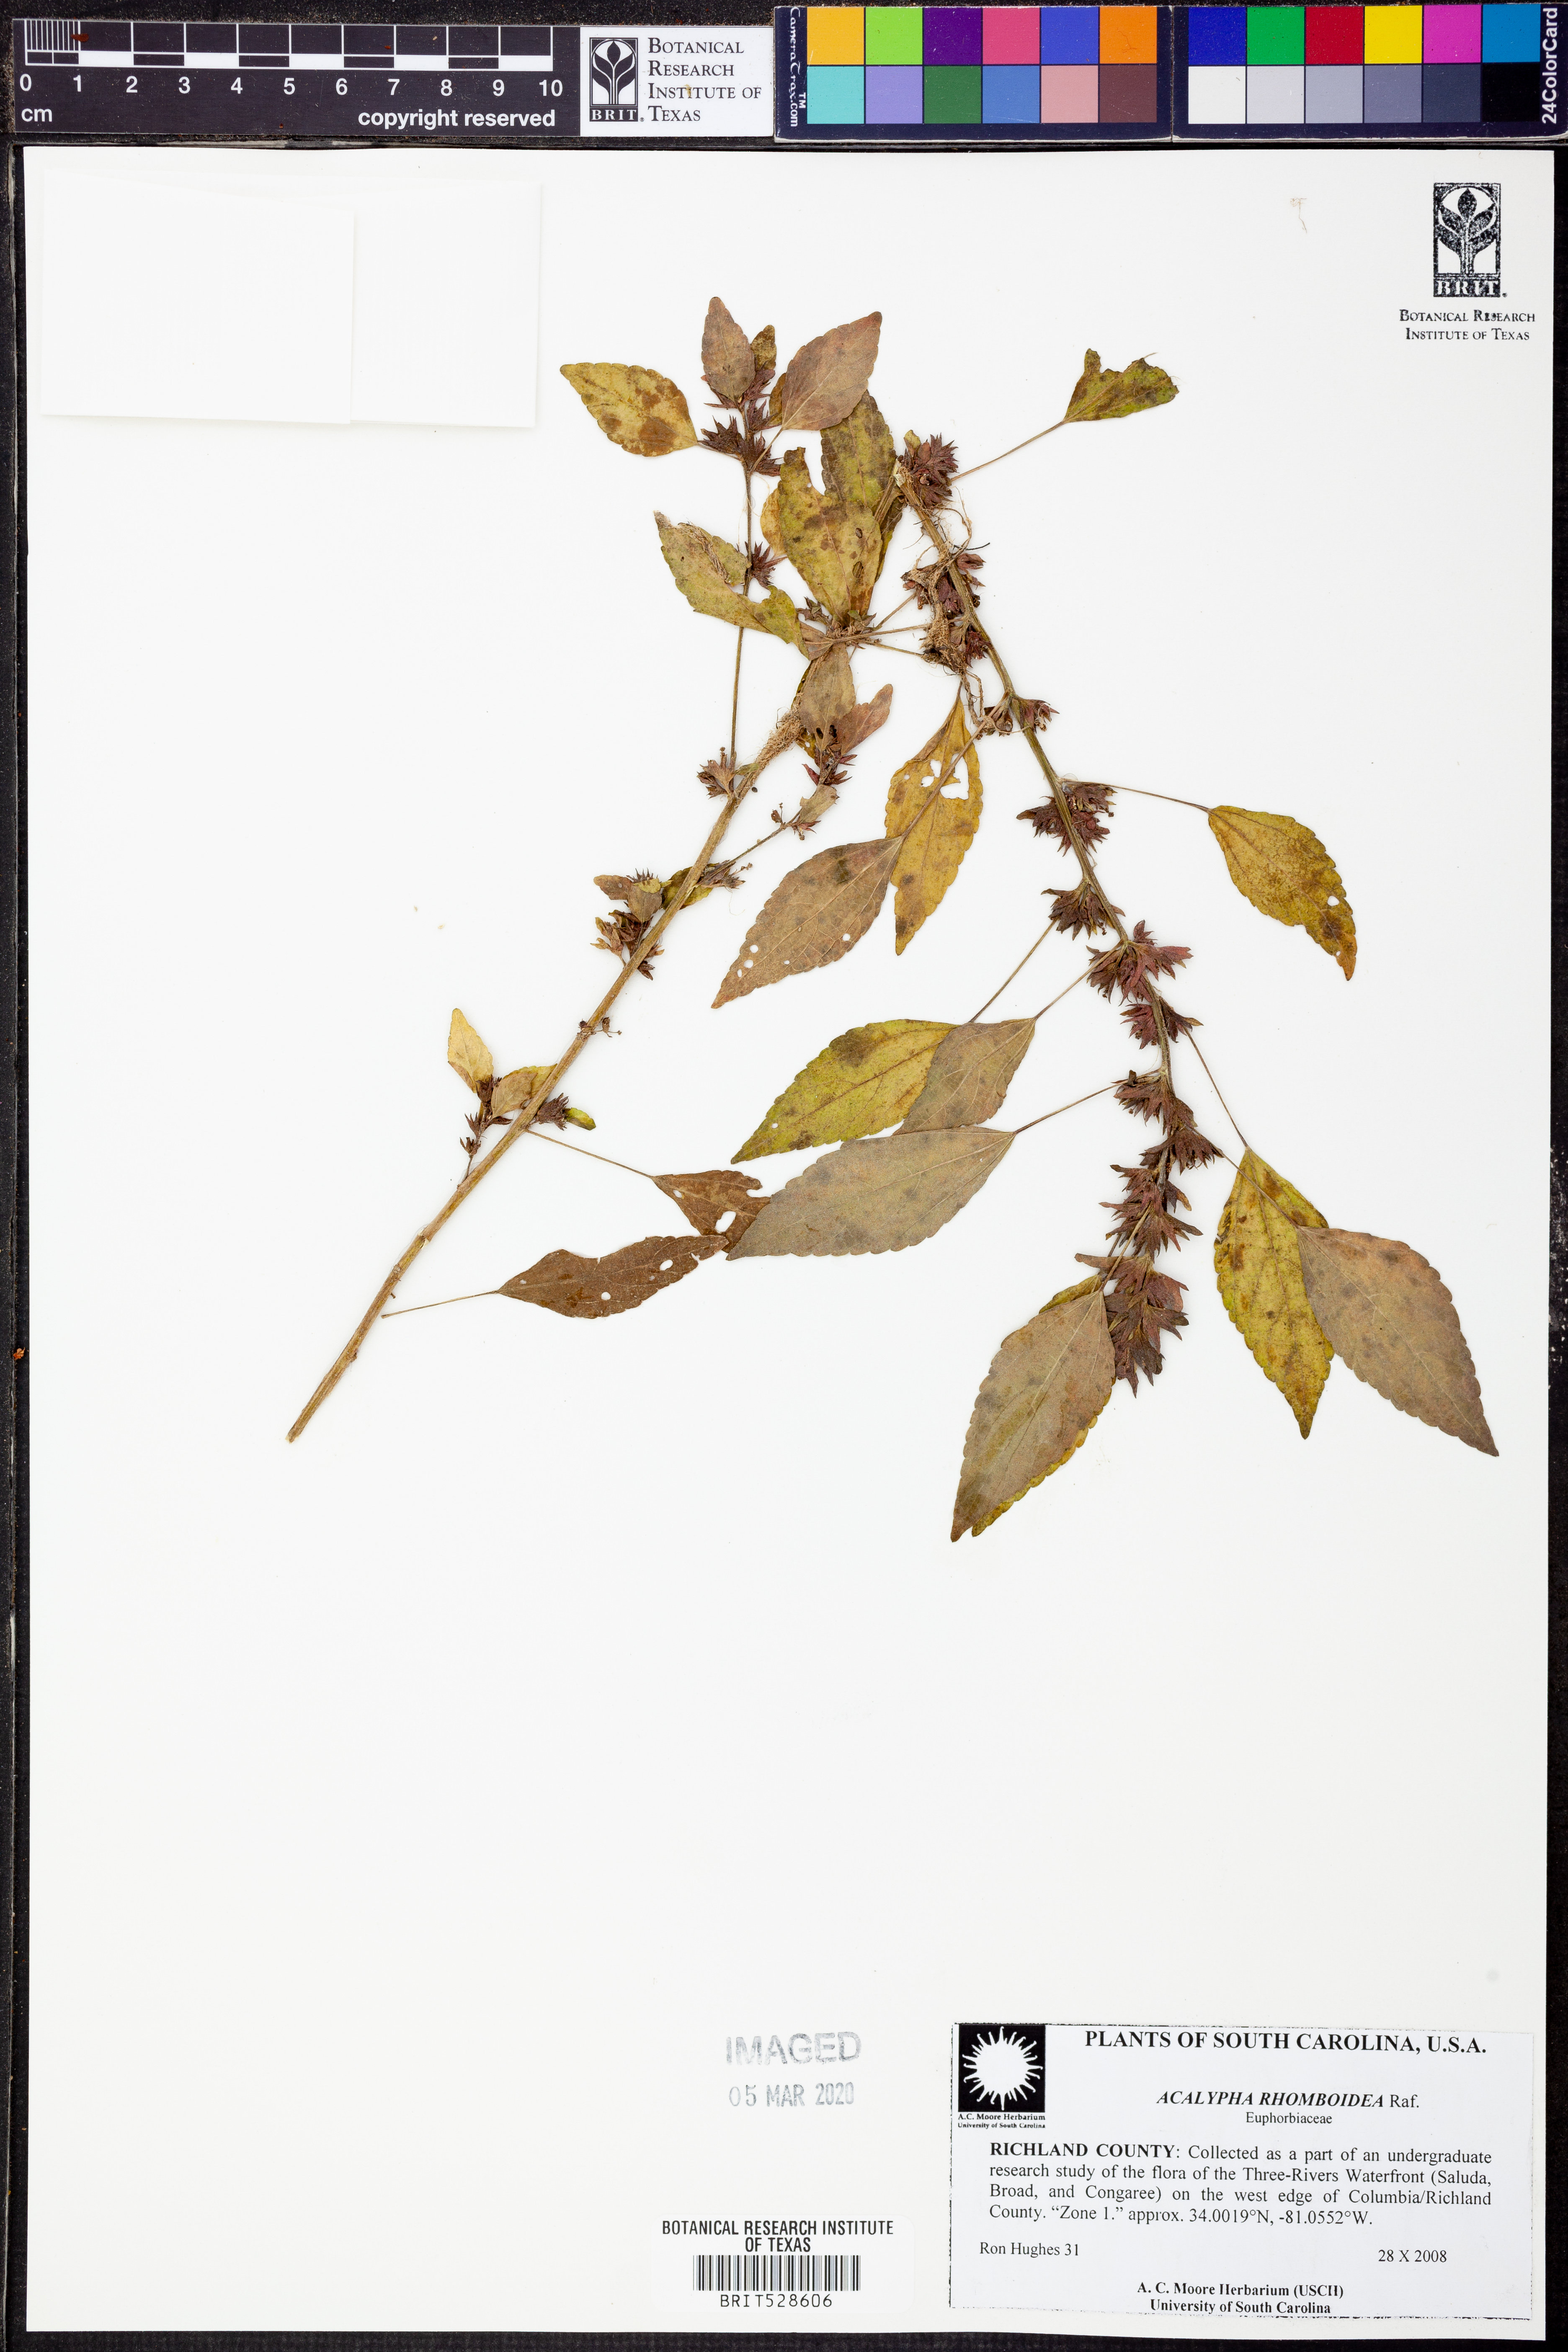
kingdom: Plantae
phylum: Tracheophyta
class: Magnoliopsida
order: Malpighiales
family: Euphorbiaceae
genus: Acalypha
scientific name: Acalypha rhomboidea
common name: Rhombic copperleaf
